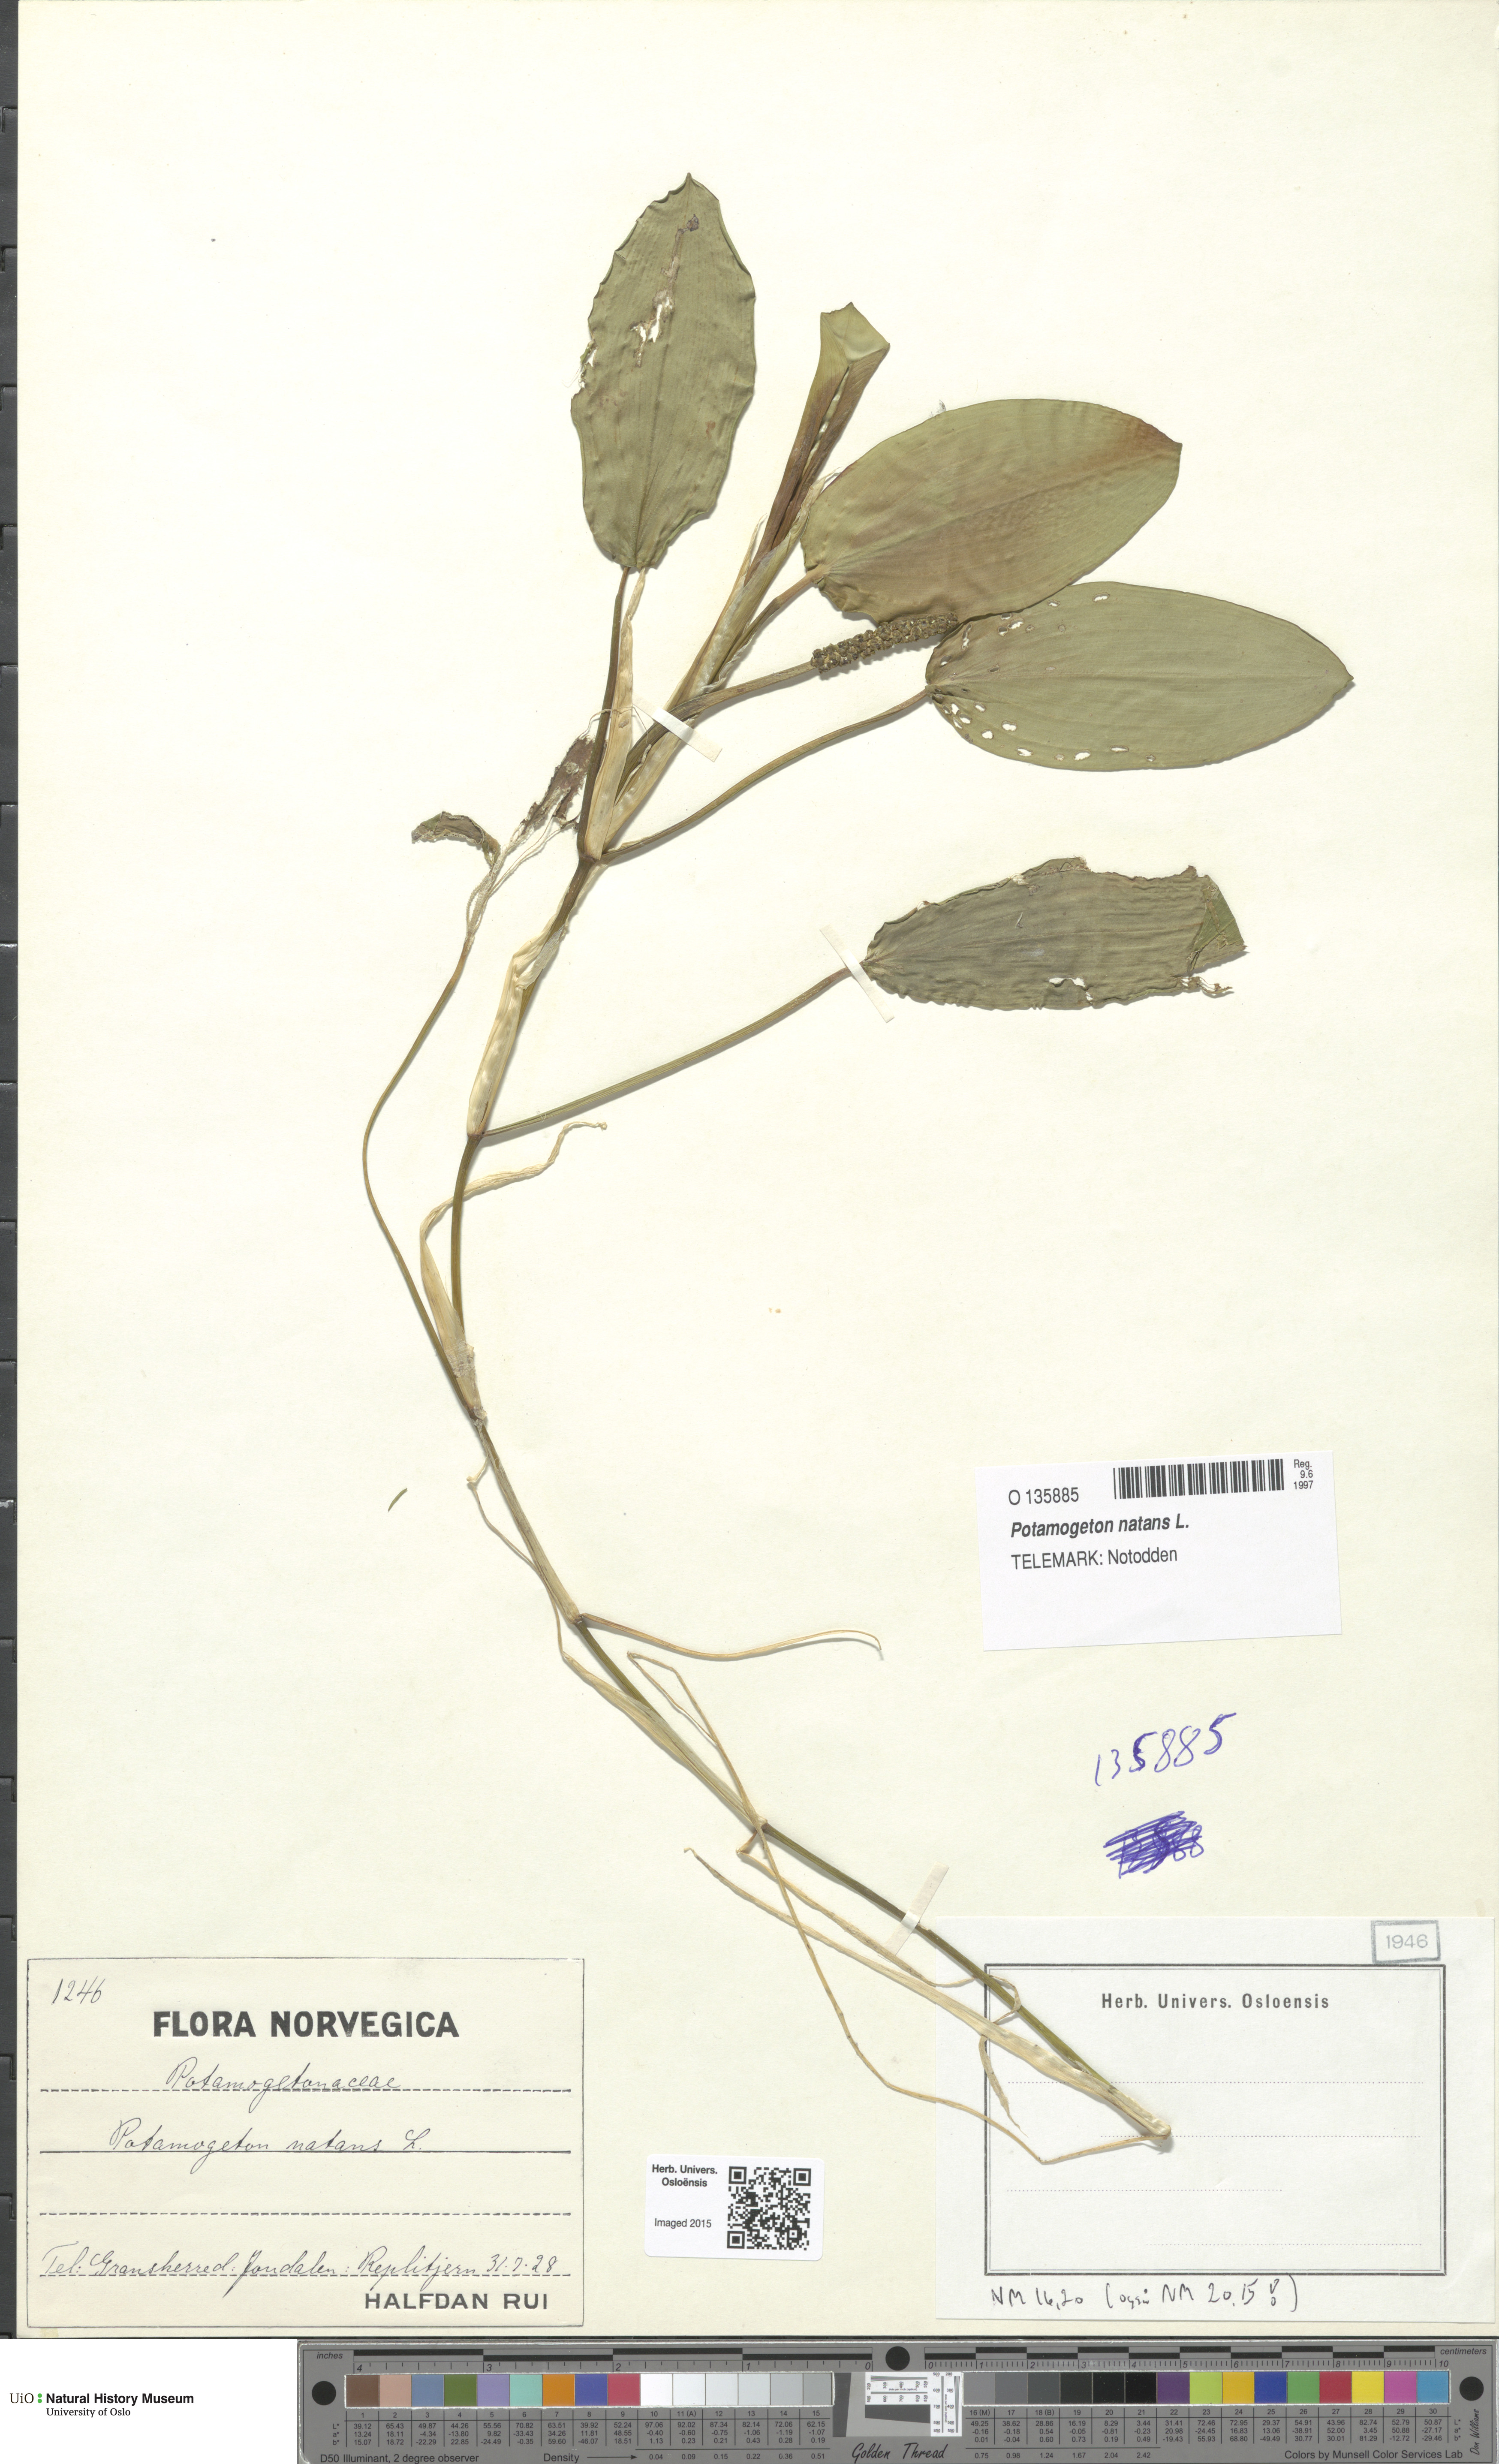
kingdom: Plantae
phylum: Tracheophyta
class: Liliopsida
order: Alismatales
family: Potamogetonaceae
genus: Potamogeton
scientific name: Potamogeton natans
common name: Broad-leaved pondweed
